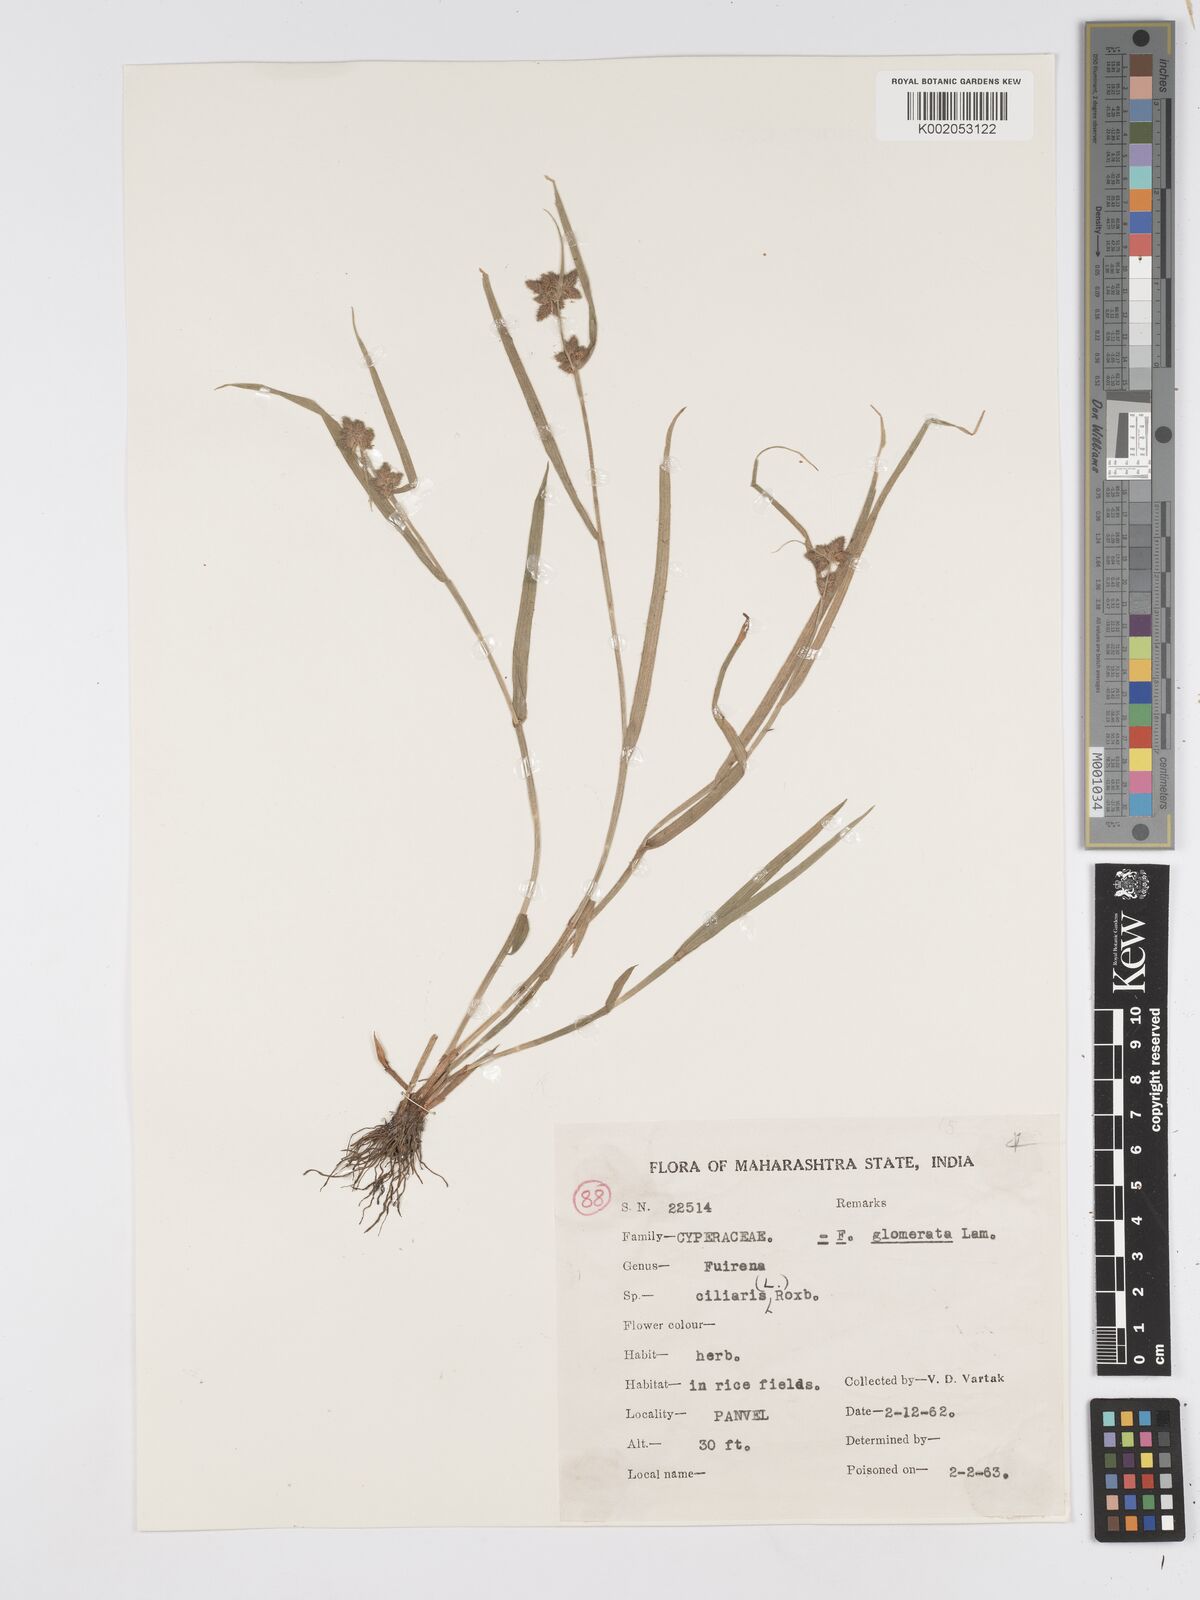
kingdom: Plantae
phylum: Tracheophyta
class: Liliopsida
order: Poales
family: Cyperaceae
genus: Fuirena
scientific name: Fuirena ciliaris
